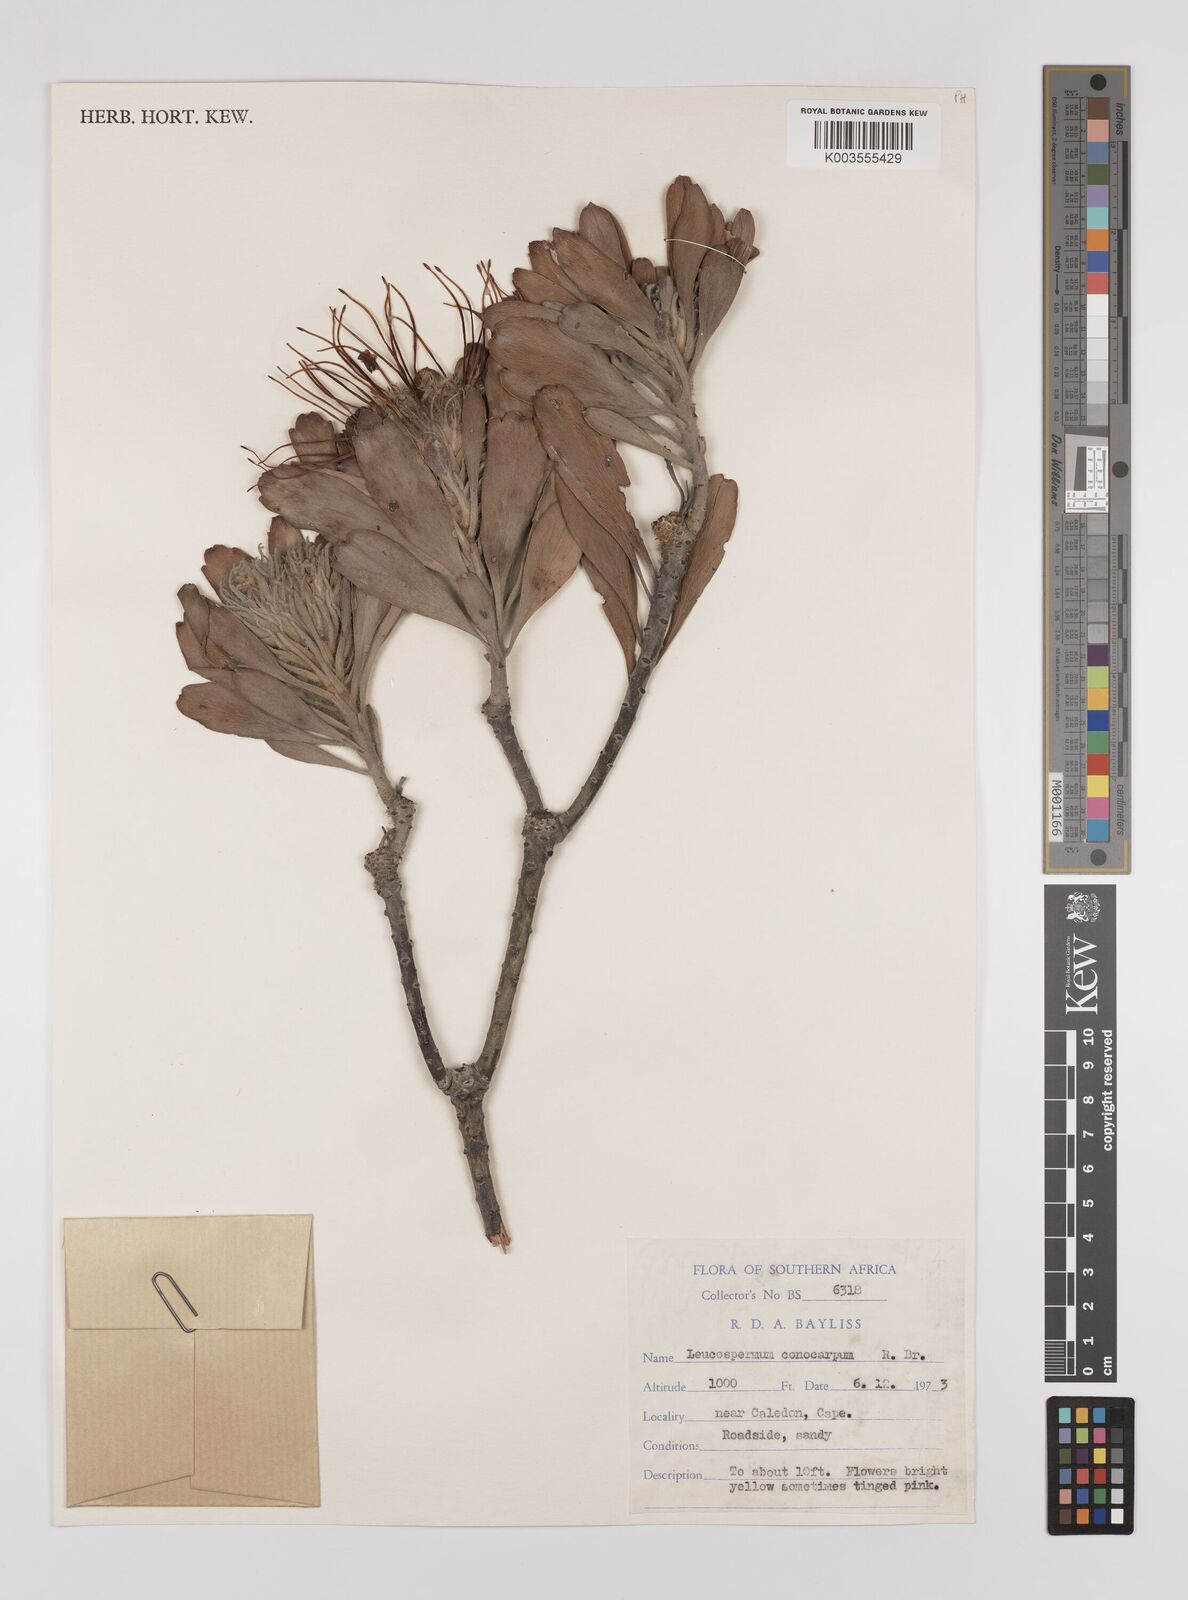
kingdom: Plantae
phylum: Tracheophyta
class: Magnoliopsida
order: Proteales
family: Proteaceae
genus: Leucospermum
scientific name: Leucospermum conocarpodendron
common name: Tree pincushion
